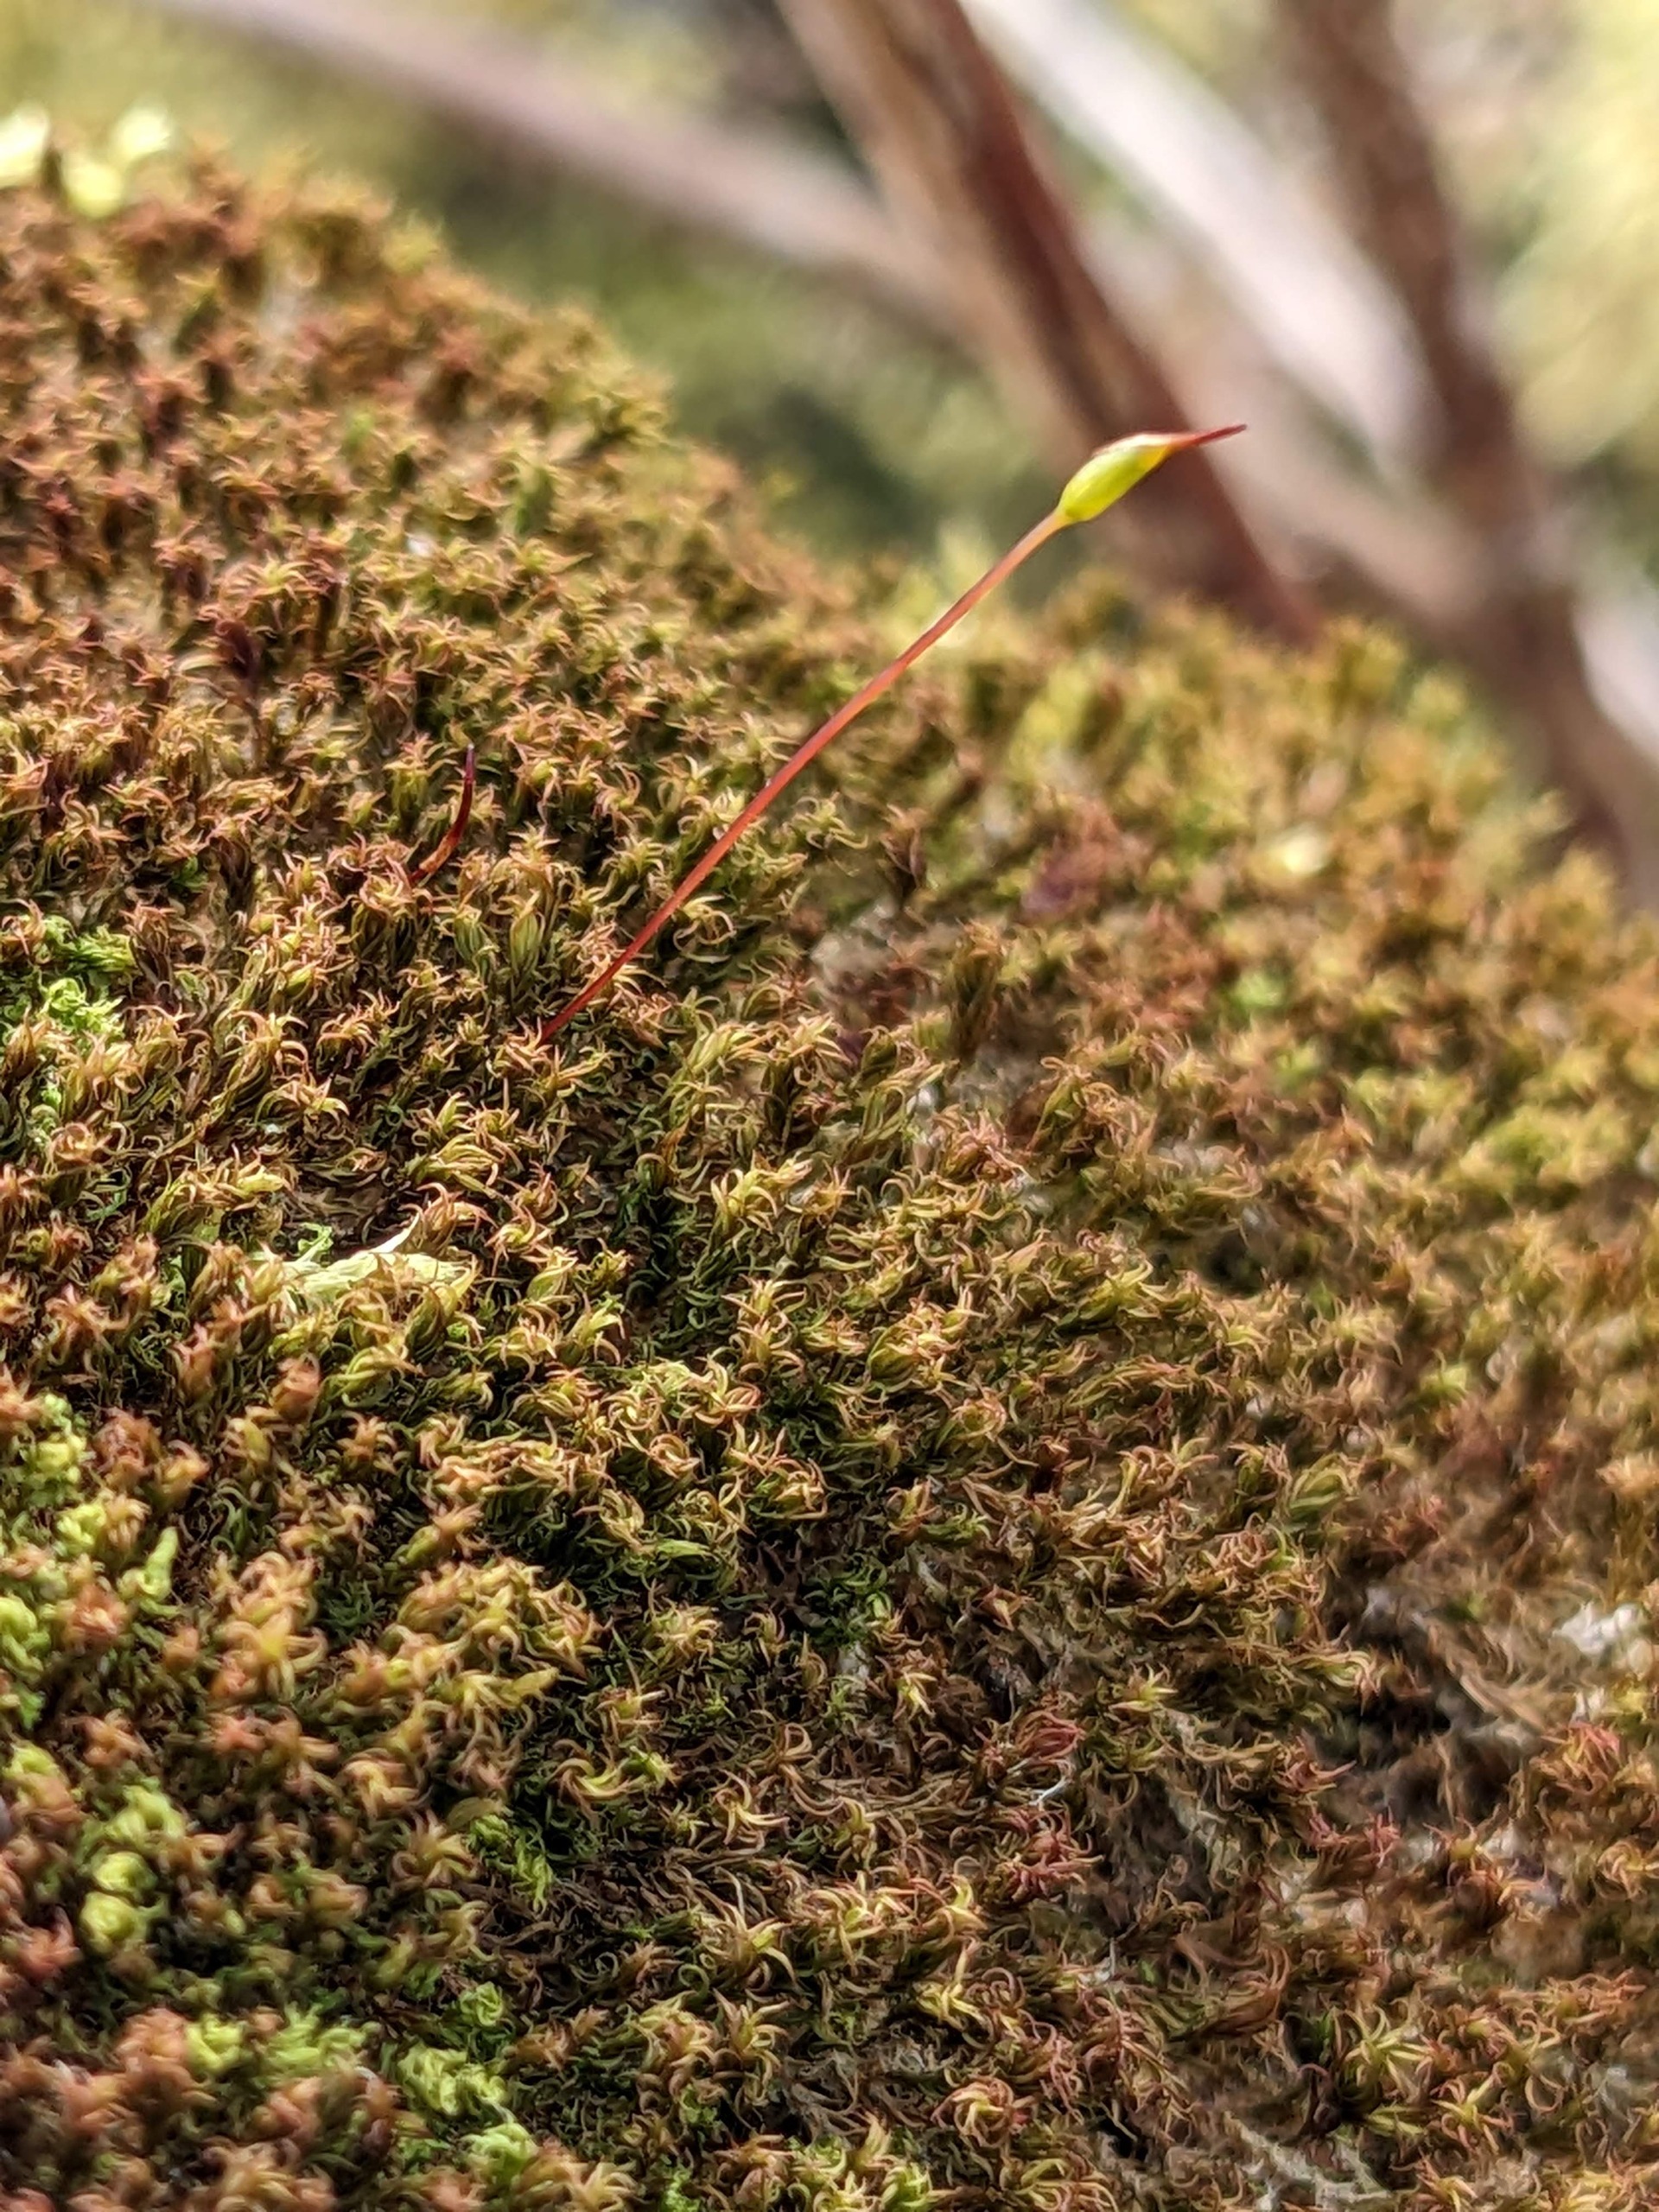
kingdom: Plantae
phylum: Bryophyta
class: Bryopsida
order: Dicranales
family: Ditrichaceae
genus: Ceratodon
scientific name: Ceratodon purpureus
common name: Rød horntand
